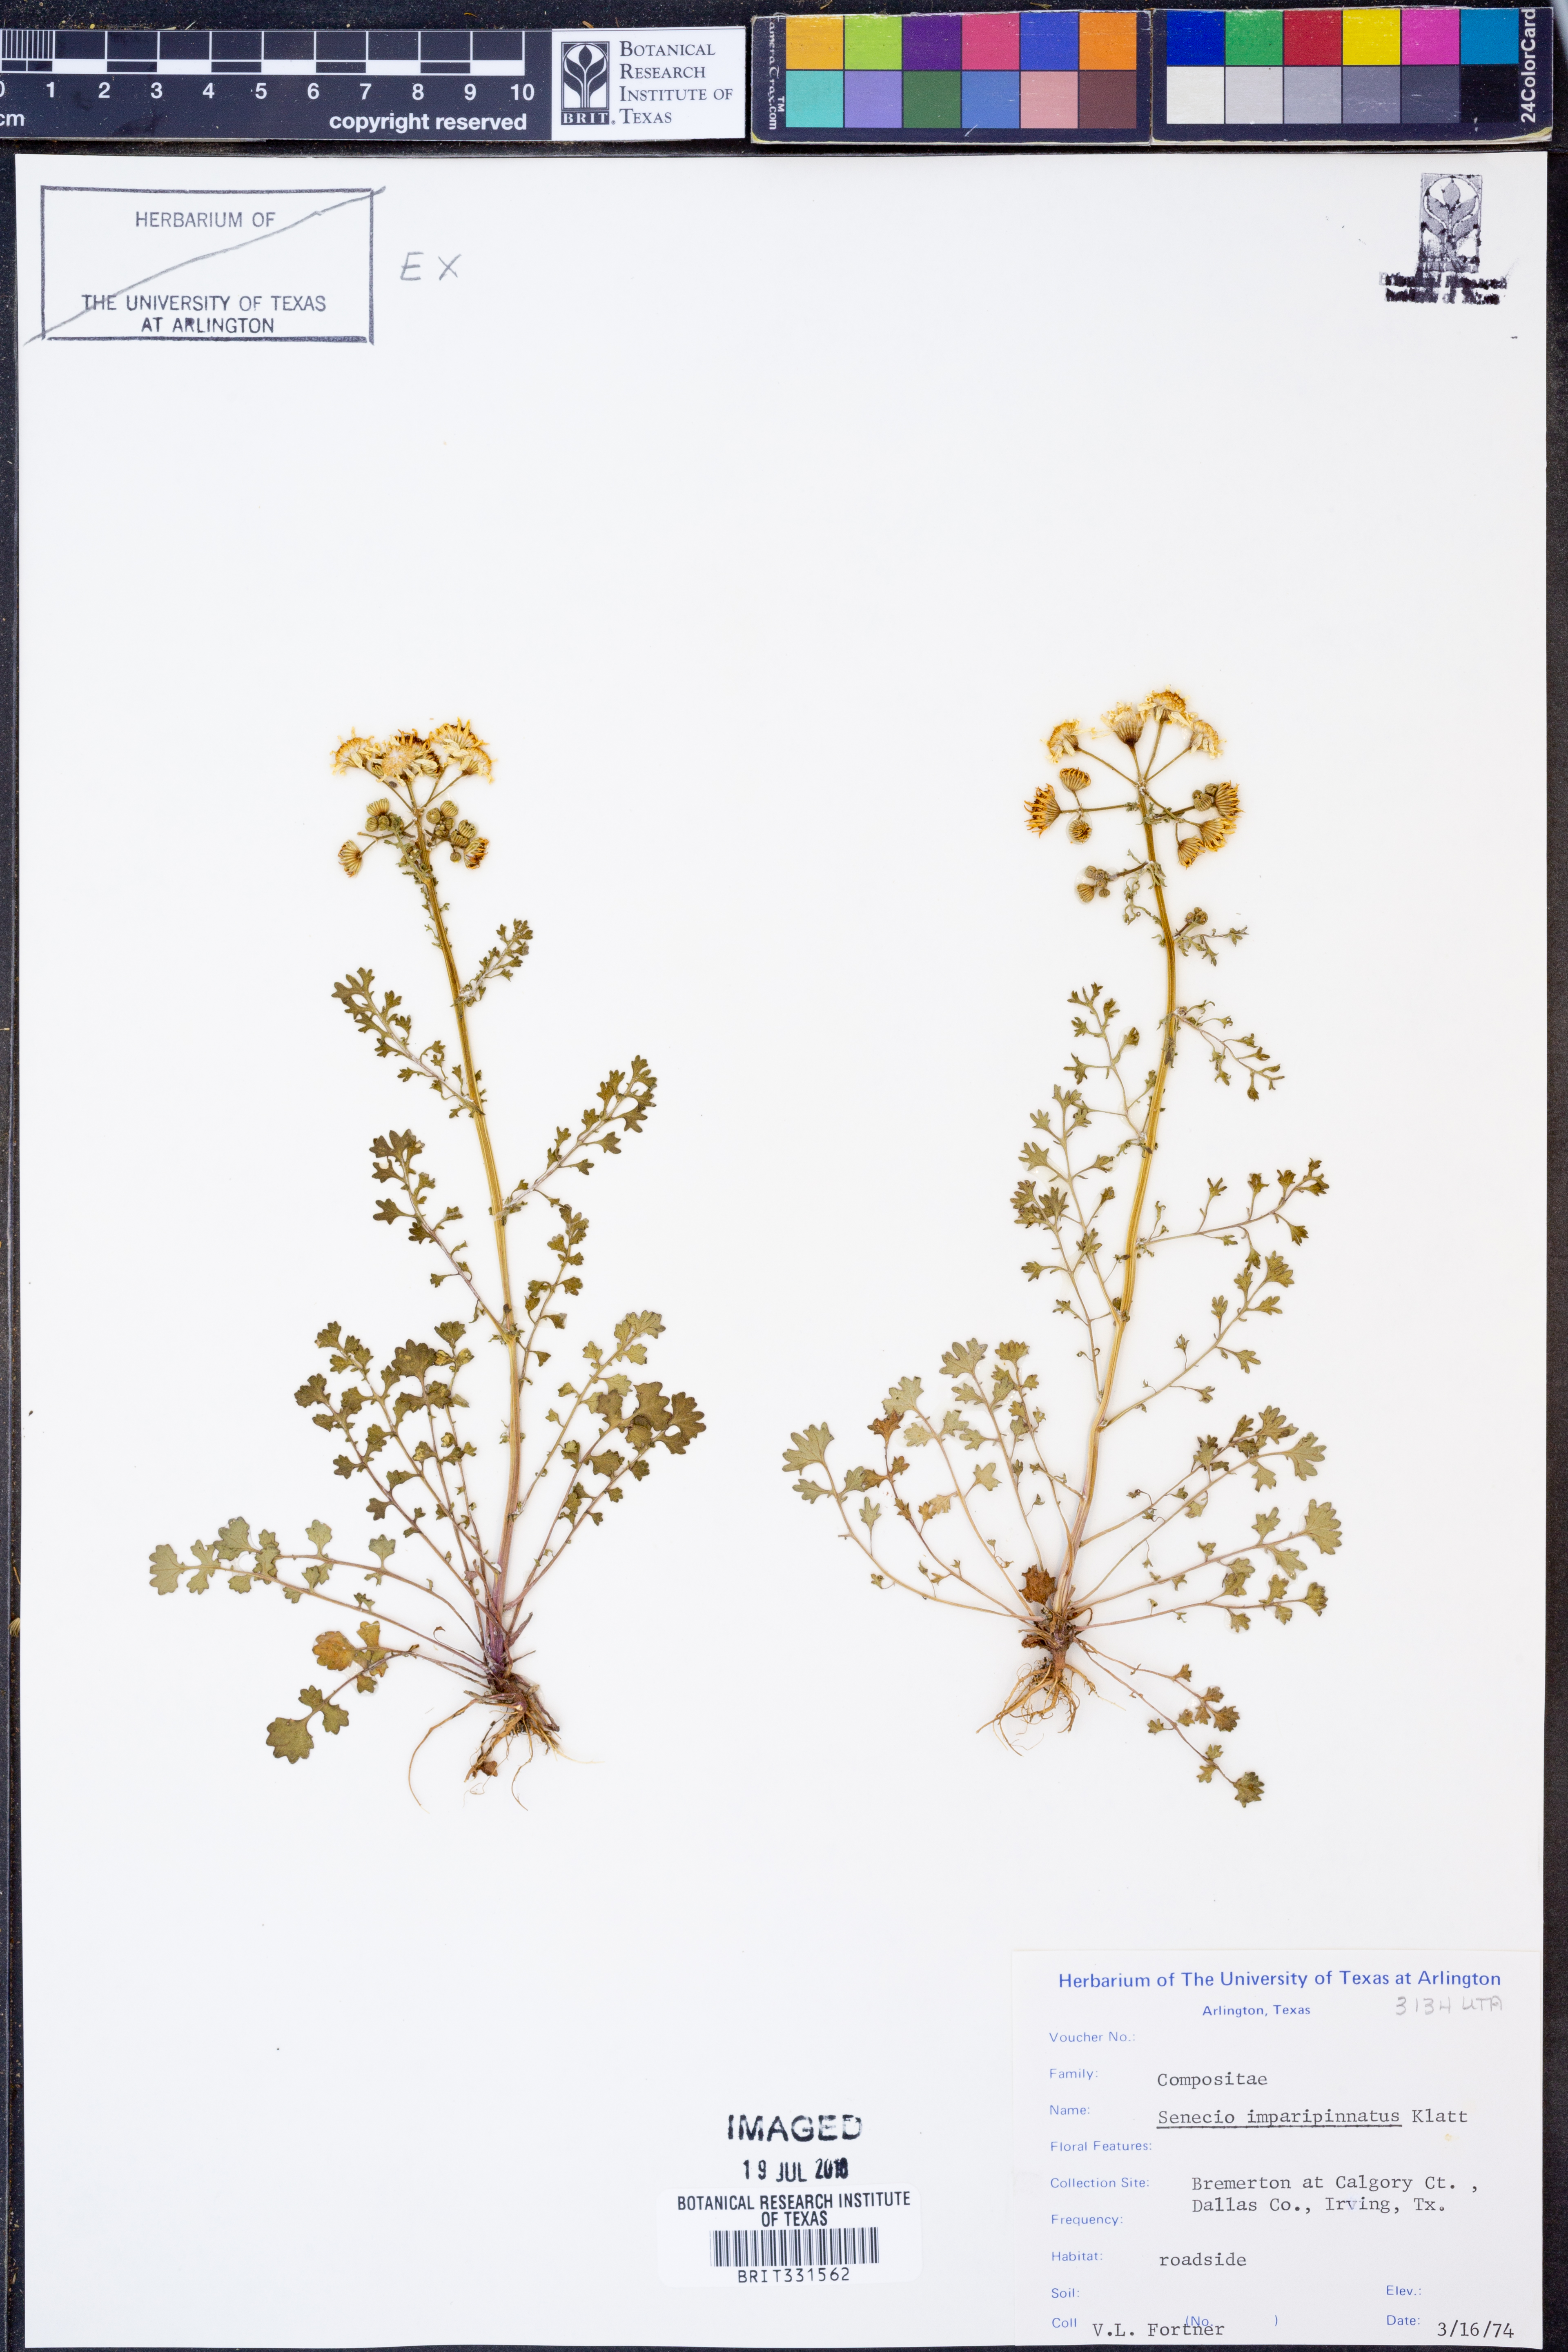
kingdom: Plantae
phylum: Tracheophyta
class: Magnoliopsida
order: Asterales
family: Asteraceae
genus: Packera
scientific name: Packera tampicana
